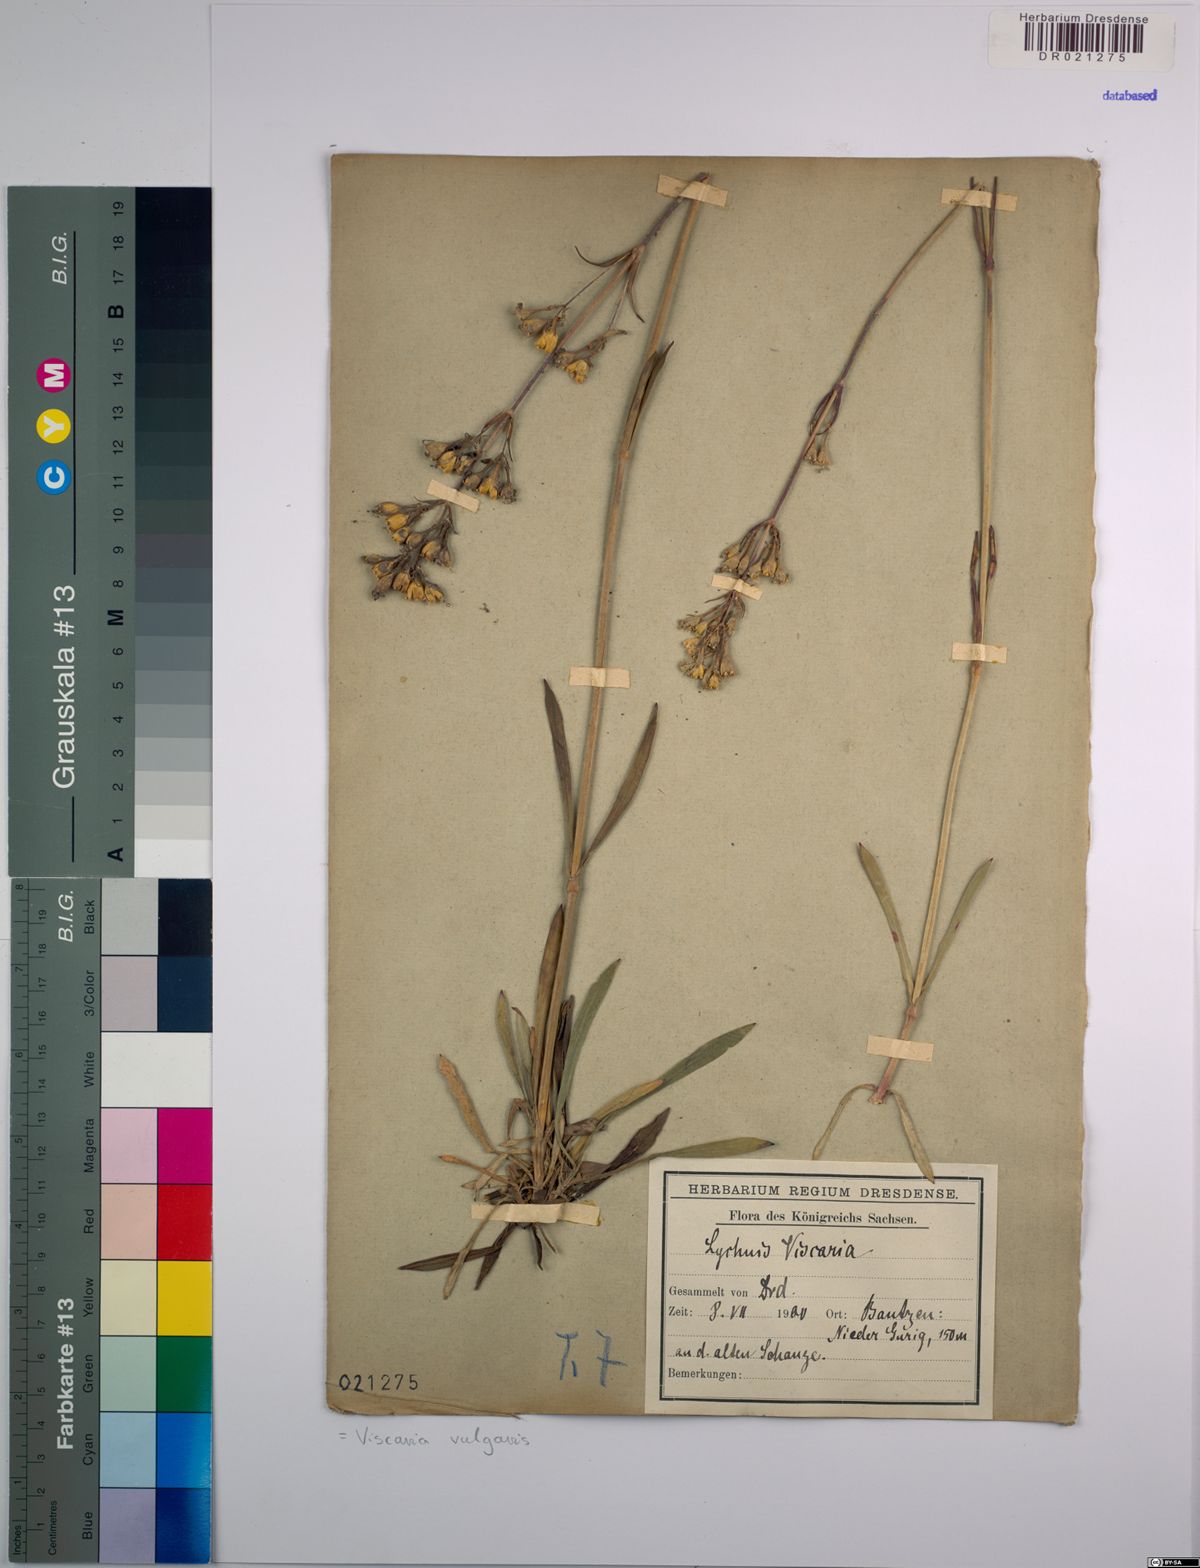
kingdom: Plantae
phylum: Tracheophyta
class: Magnoliopsida
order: Caryophyllales
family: Caryophyllaceae
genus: Viscaria
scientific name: Viscaria vulgaris
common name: Clammy campion
